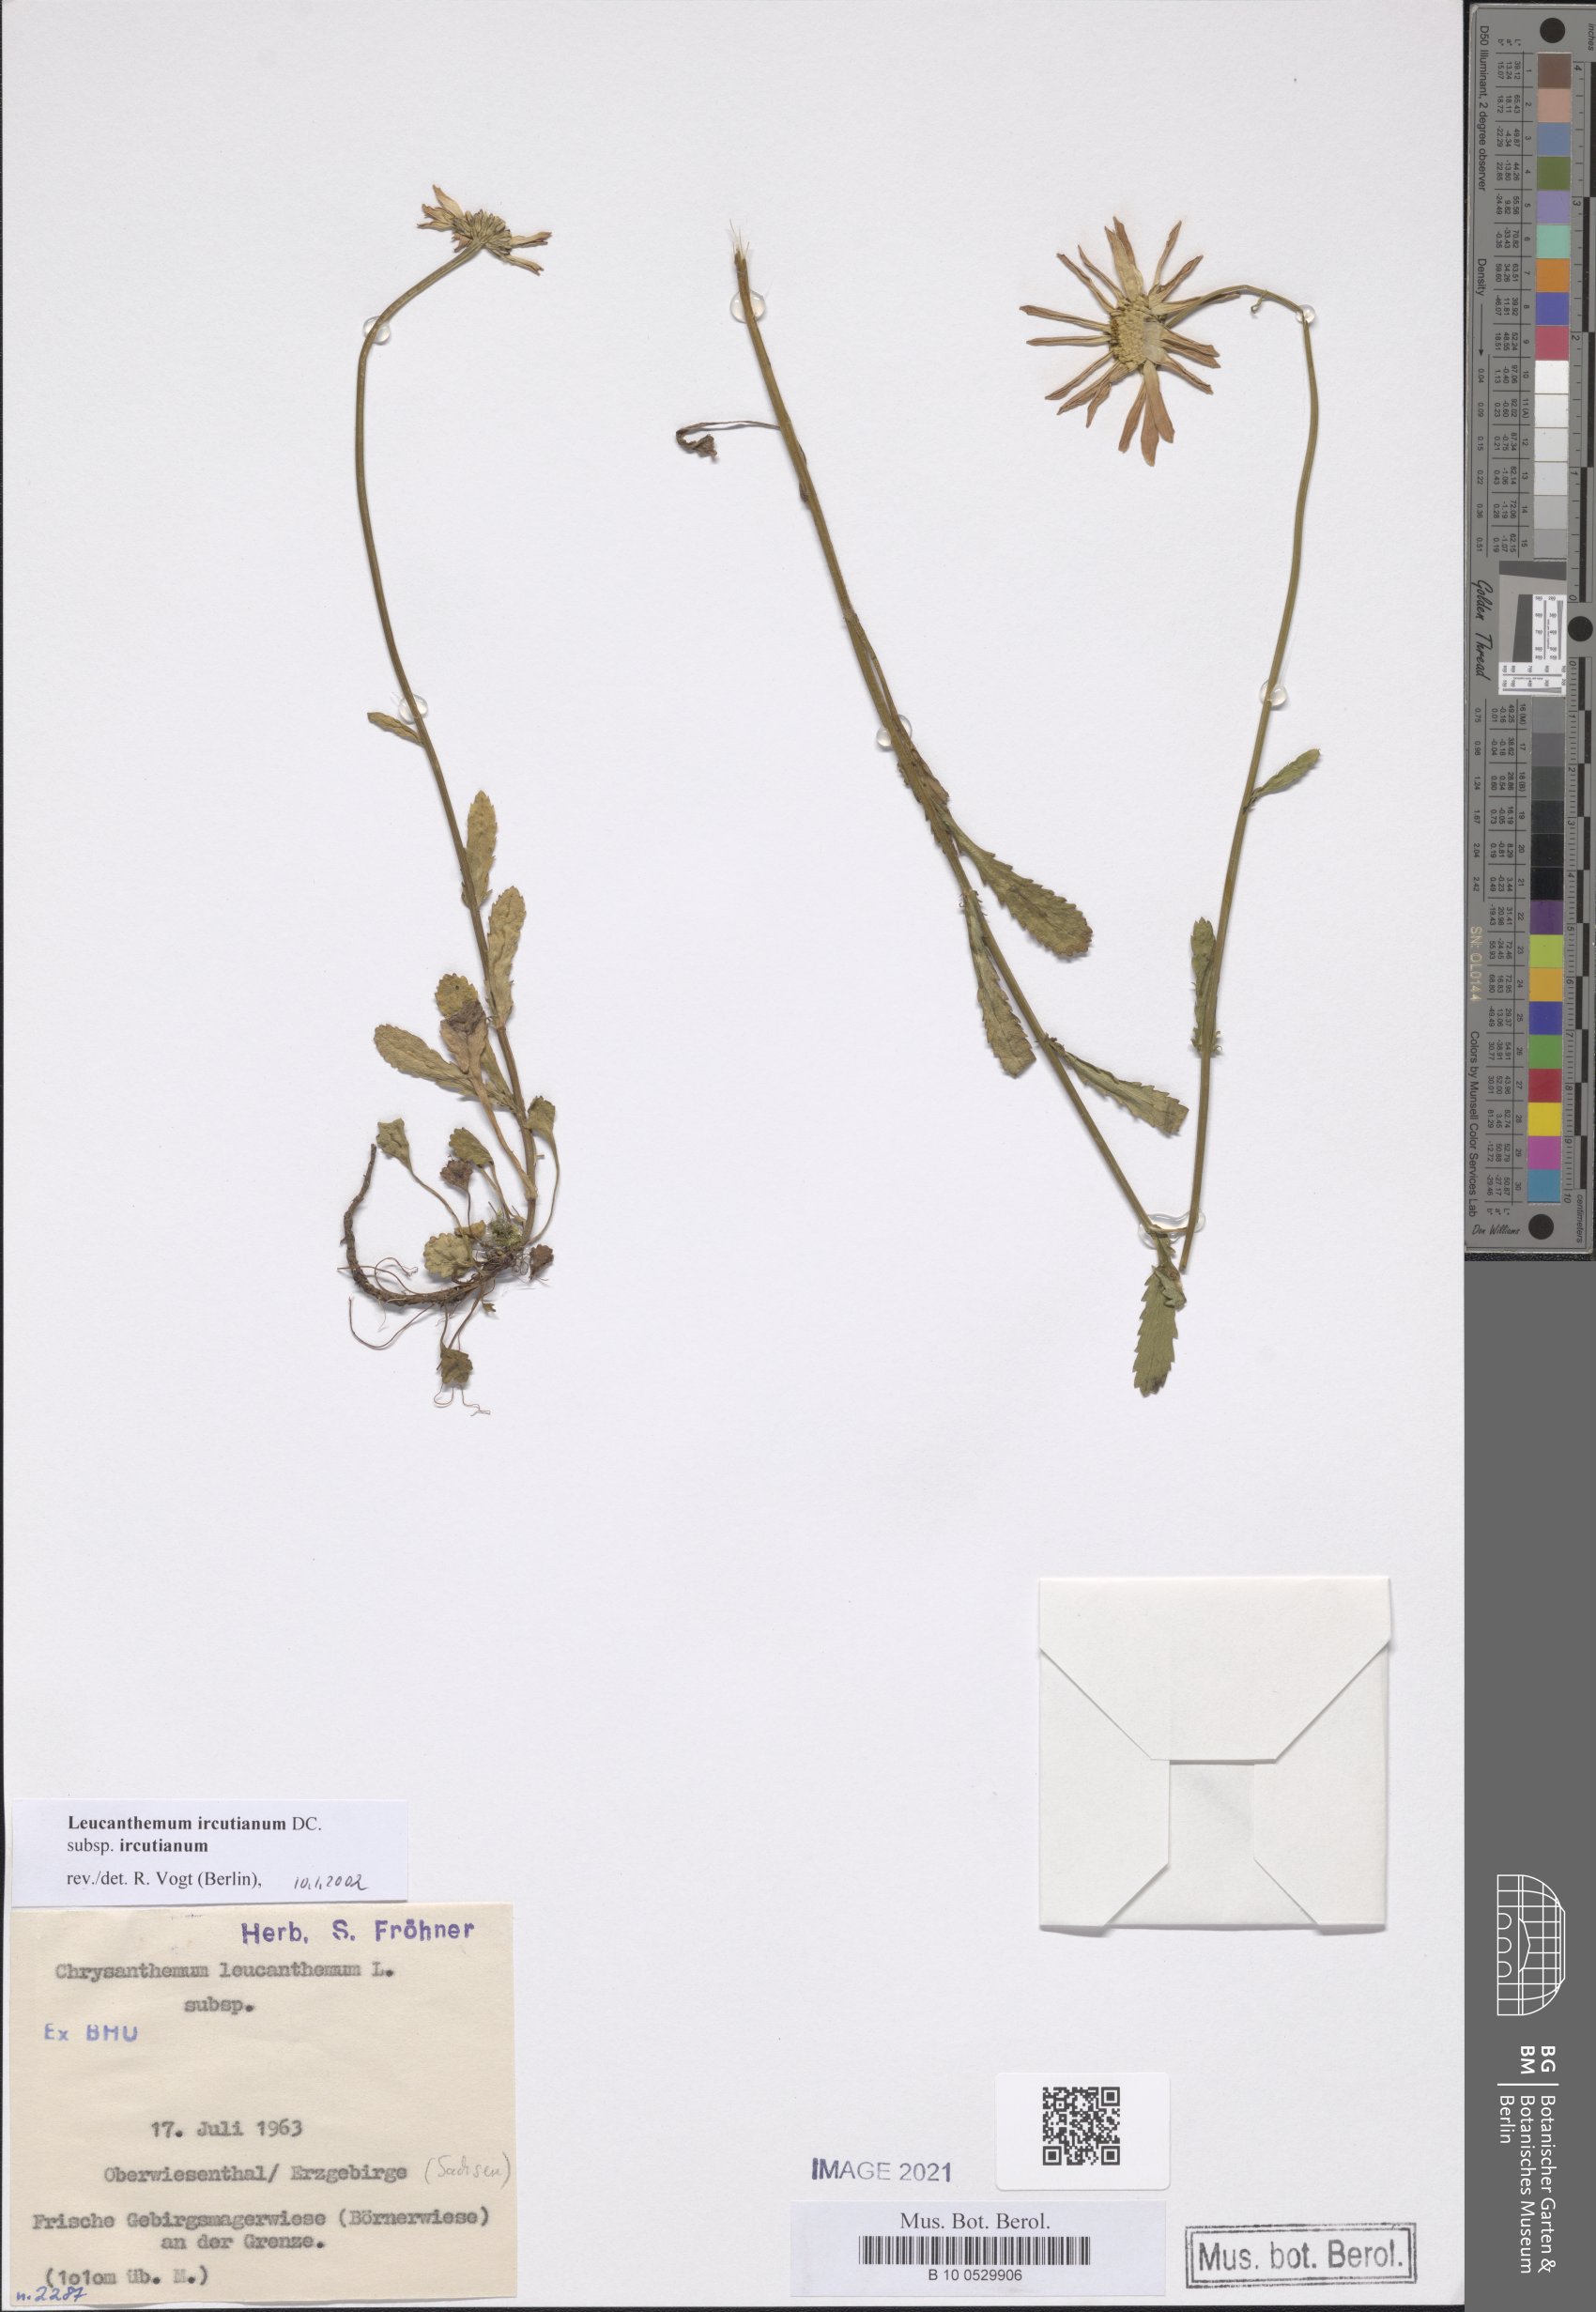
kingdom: Plantae
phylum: Tracheophyta
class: Magnoliopsida
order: Asterales
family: Asteraceae
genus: Leucanthemum
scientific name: Leucanthemum ircutianum
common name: Daisy
